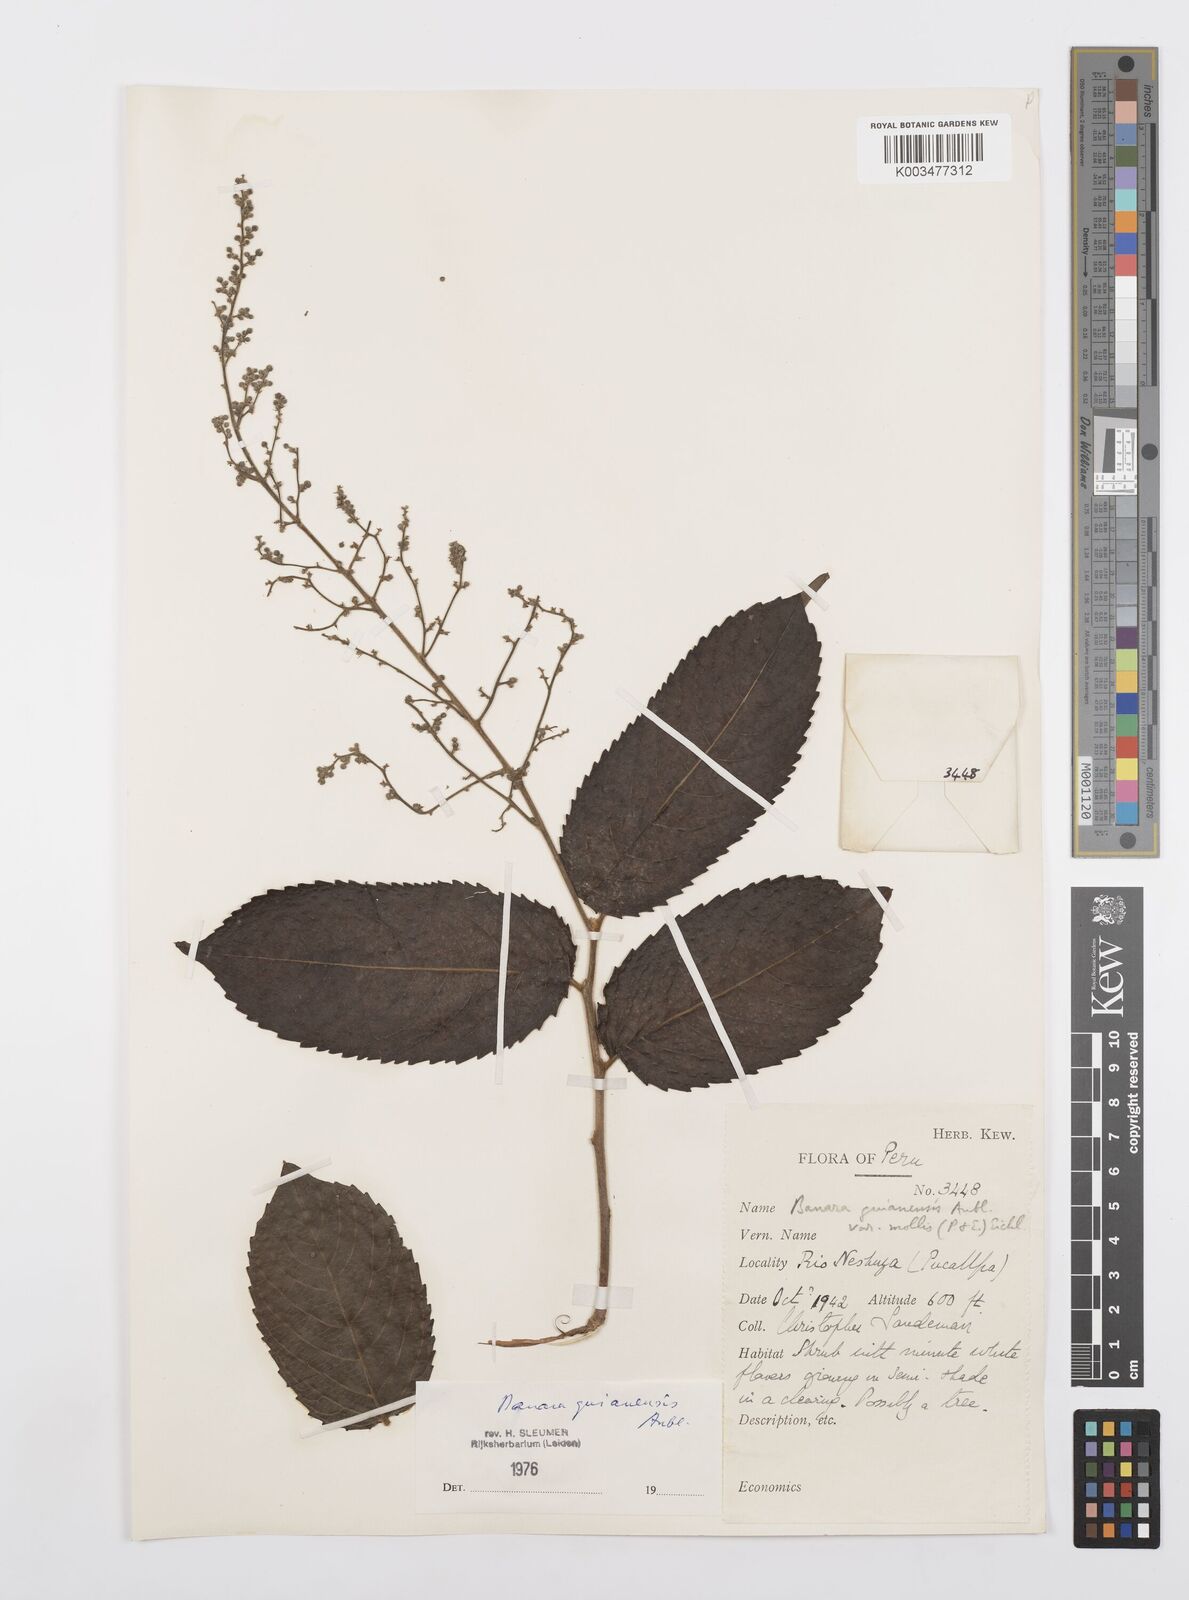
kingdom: Plantae
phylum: Tracheophyta
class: Magnoliopsida
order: Malpighiales
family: Salicaceae
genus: Banara
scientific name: Banara guianensis
